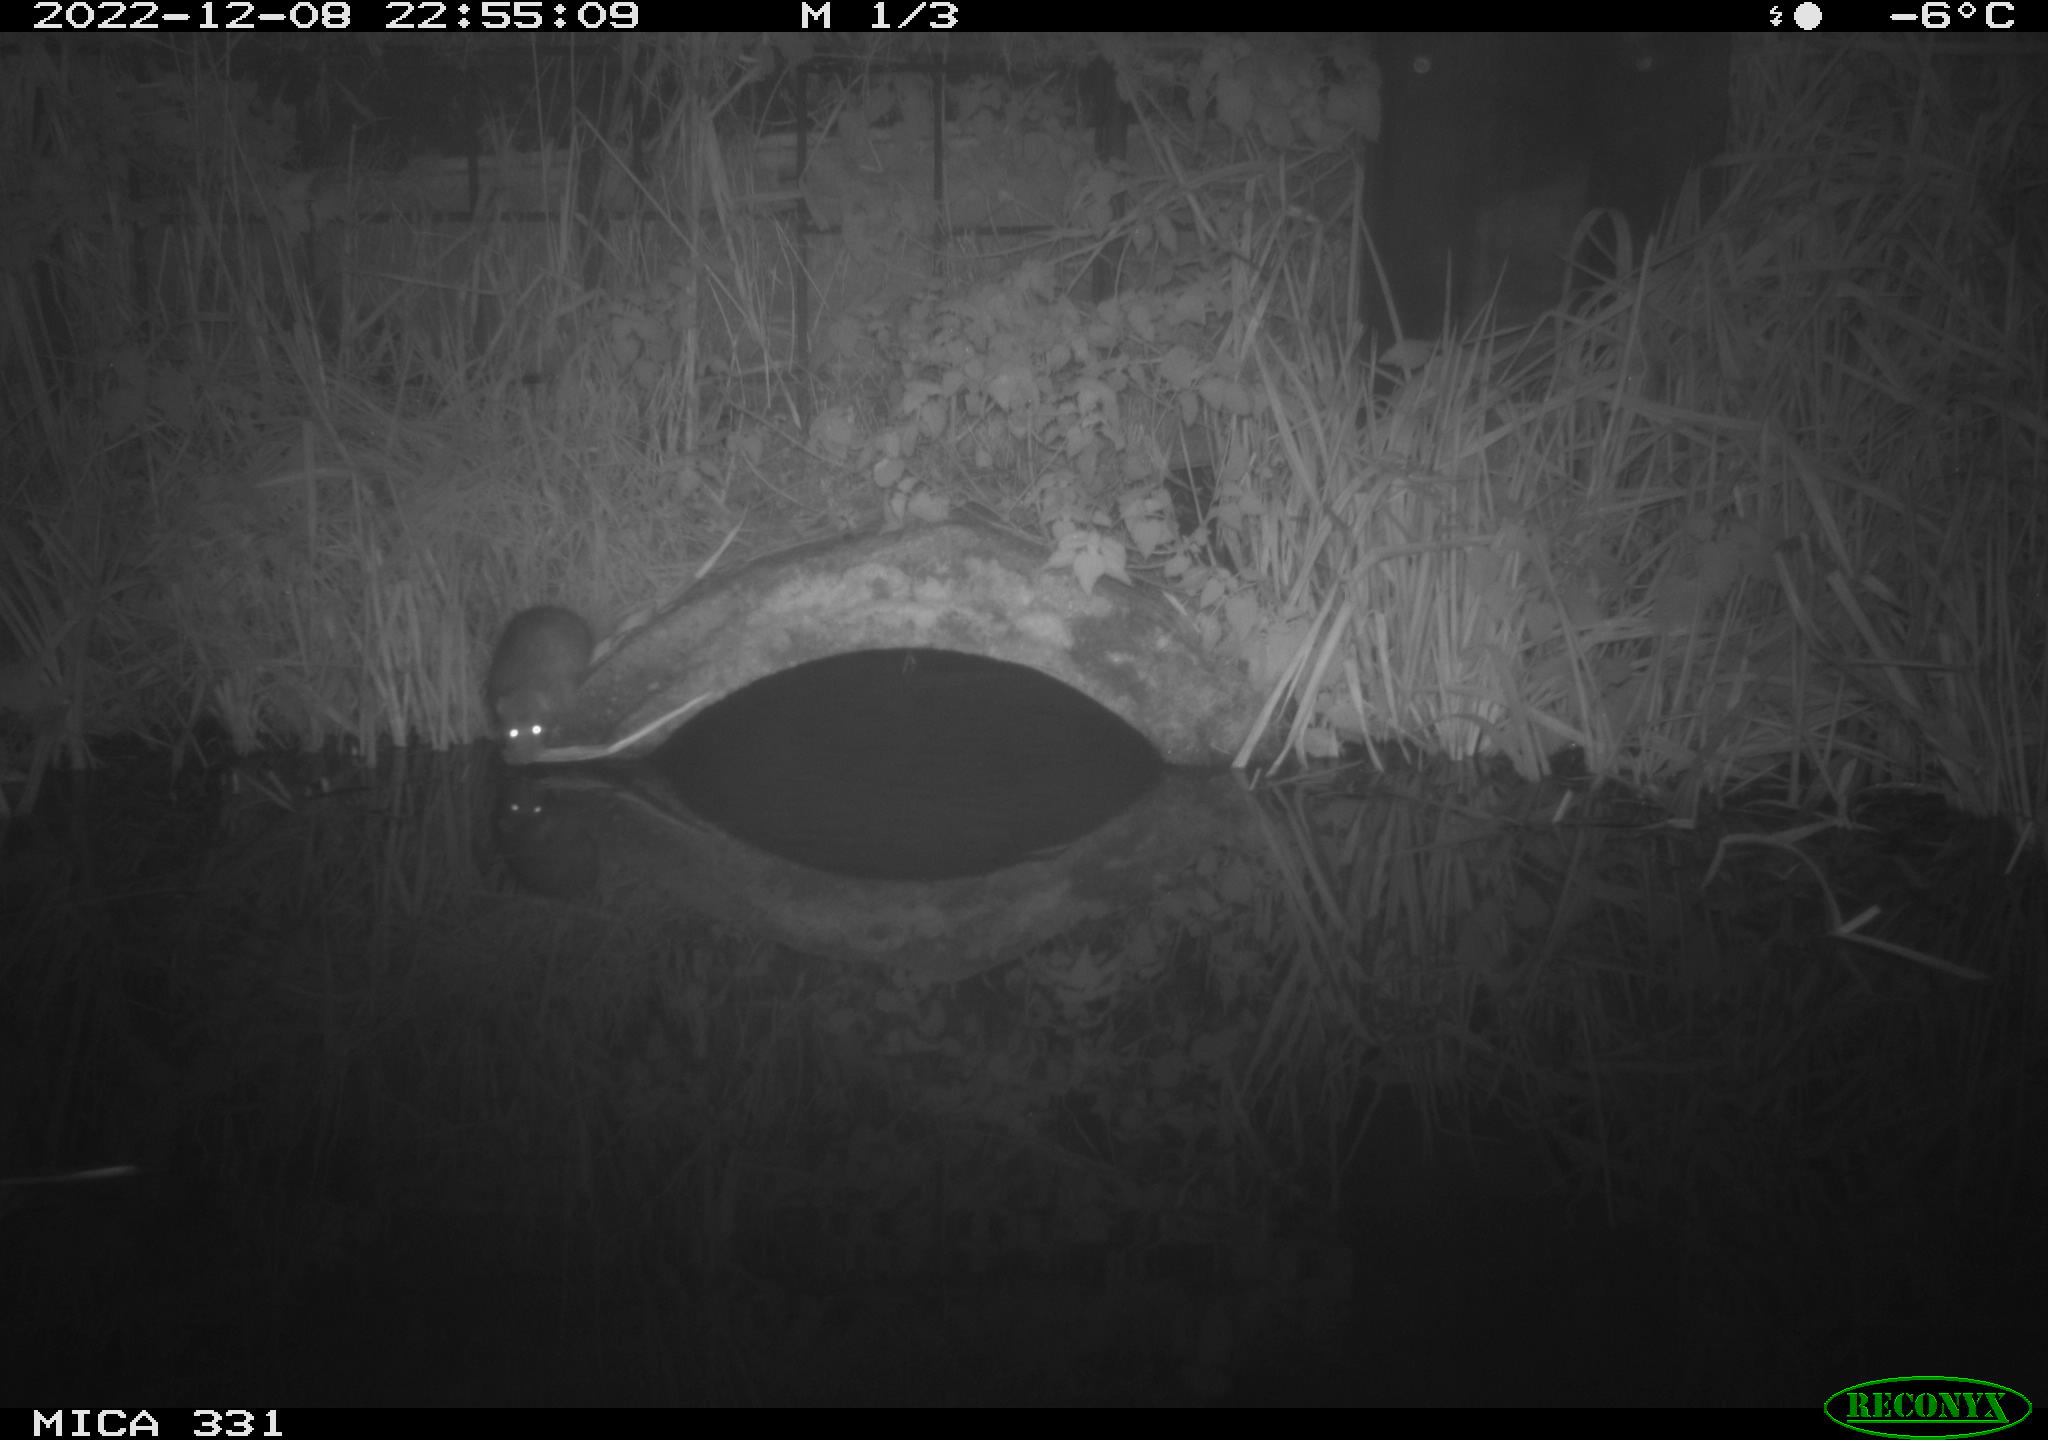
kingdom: Animalia
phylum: Chordata
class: Mammalia
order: Rodentia
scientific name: Rodentia
